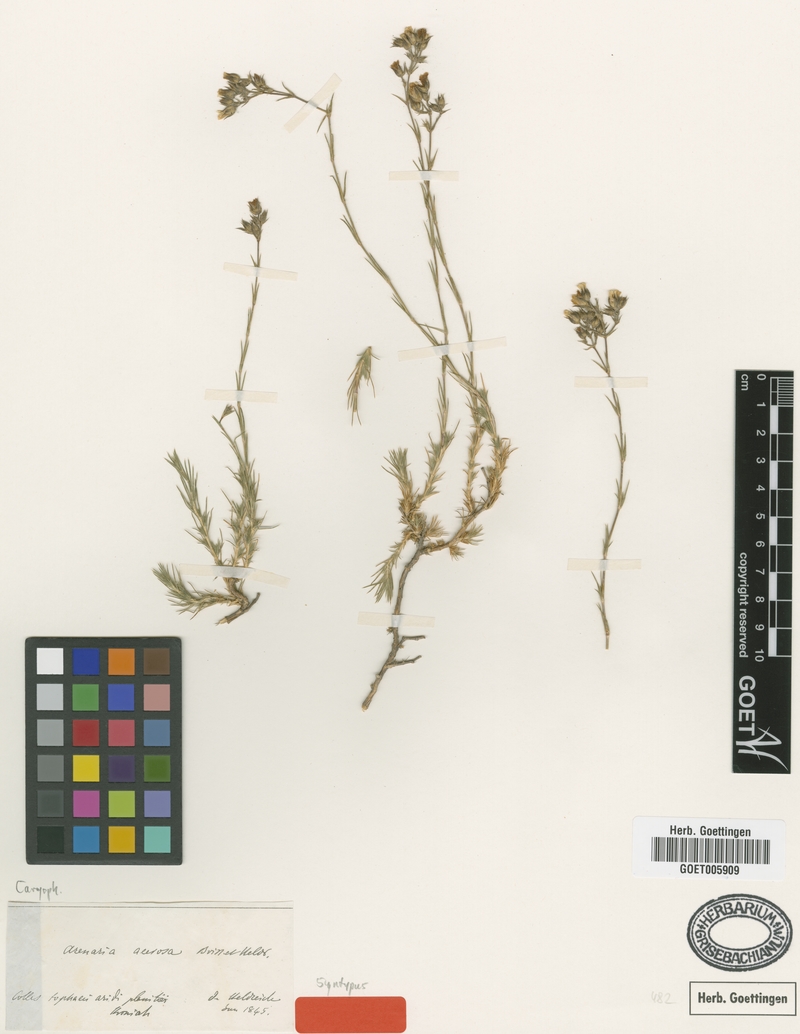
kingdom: Plantae
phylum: Tracheophyta
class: Magnoliopsida
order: Caryophyllales
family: Caryophyllaceae
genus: Eremogone
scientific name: Eremogone acerosa
